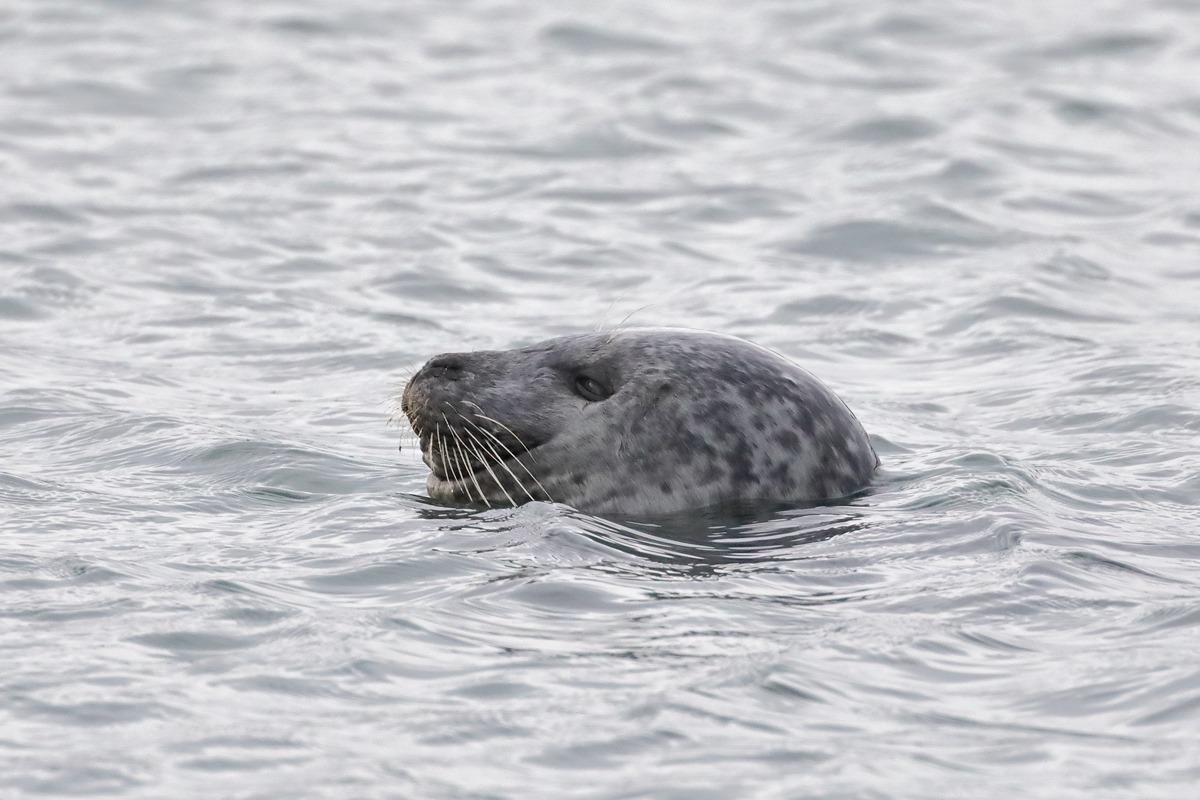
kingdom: Animalia
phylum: Chordata
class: Mammalia
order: Carnivora
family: Phocidae
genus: Phoca
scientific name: Phoca vitulina
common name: Spættet sæl
